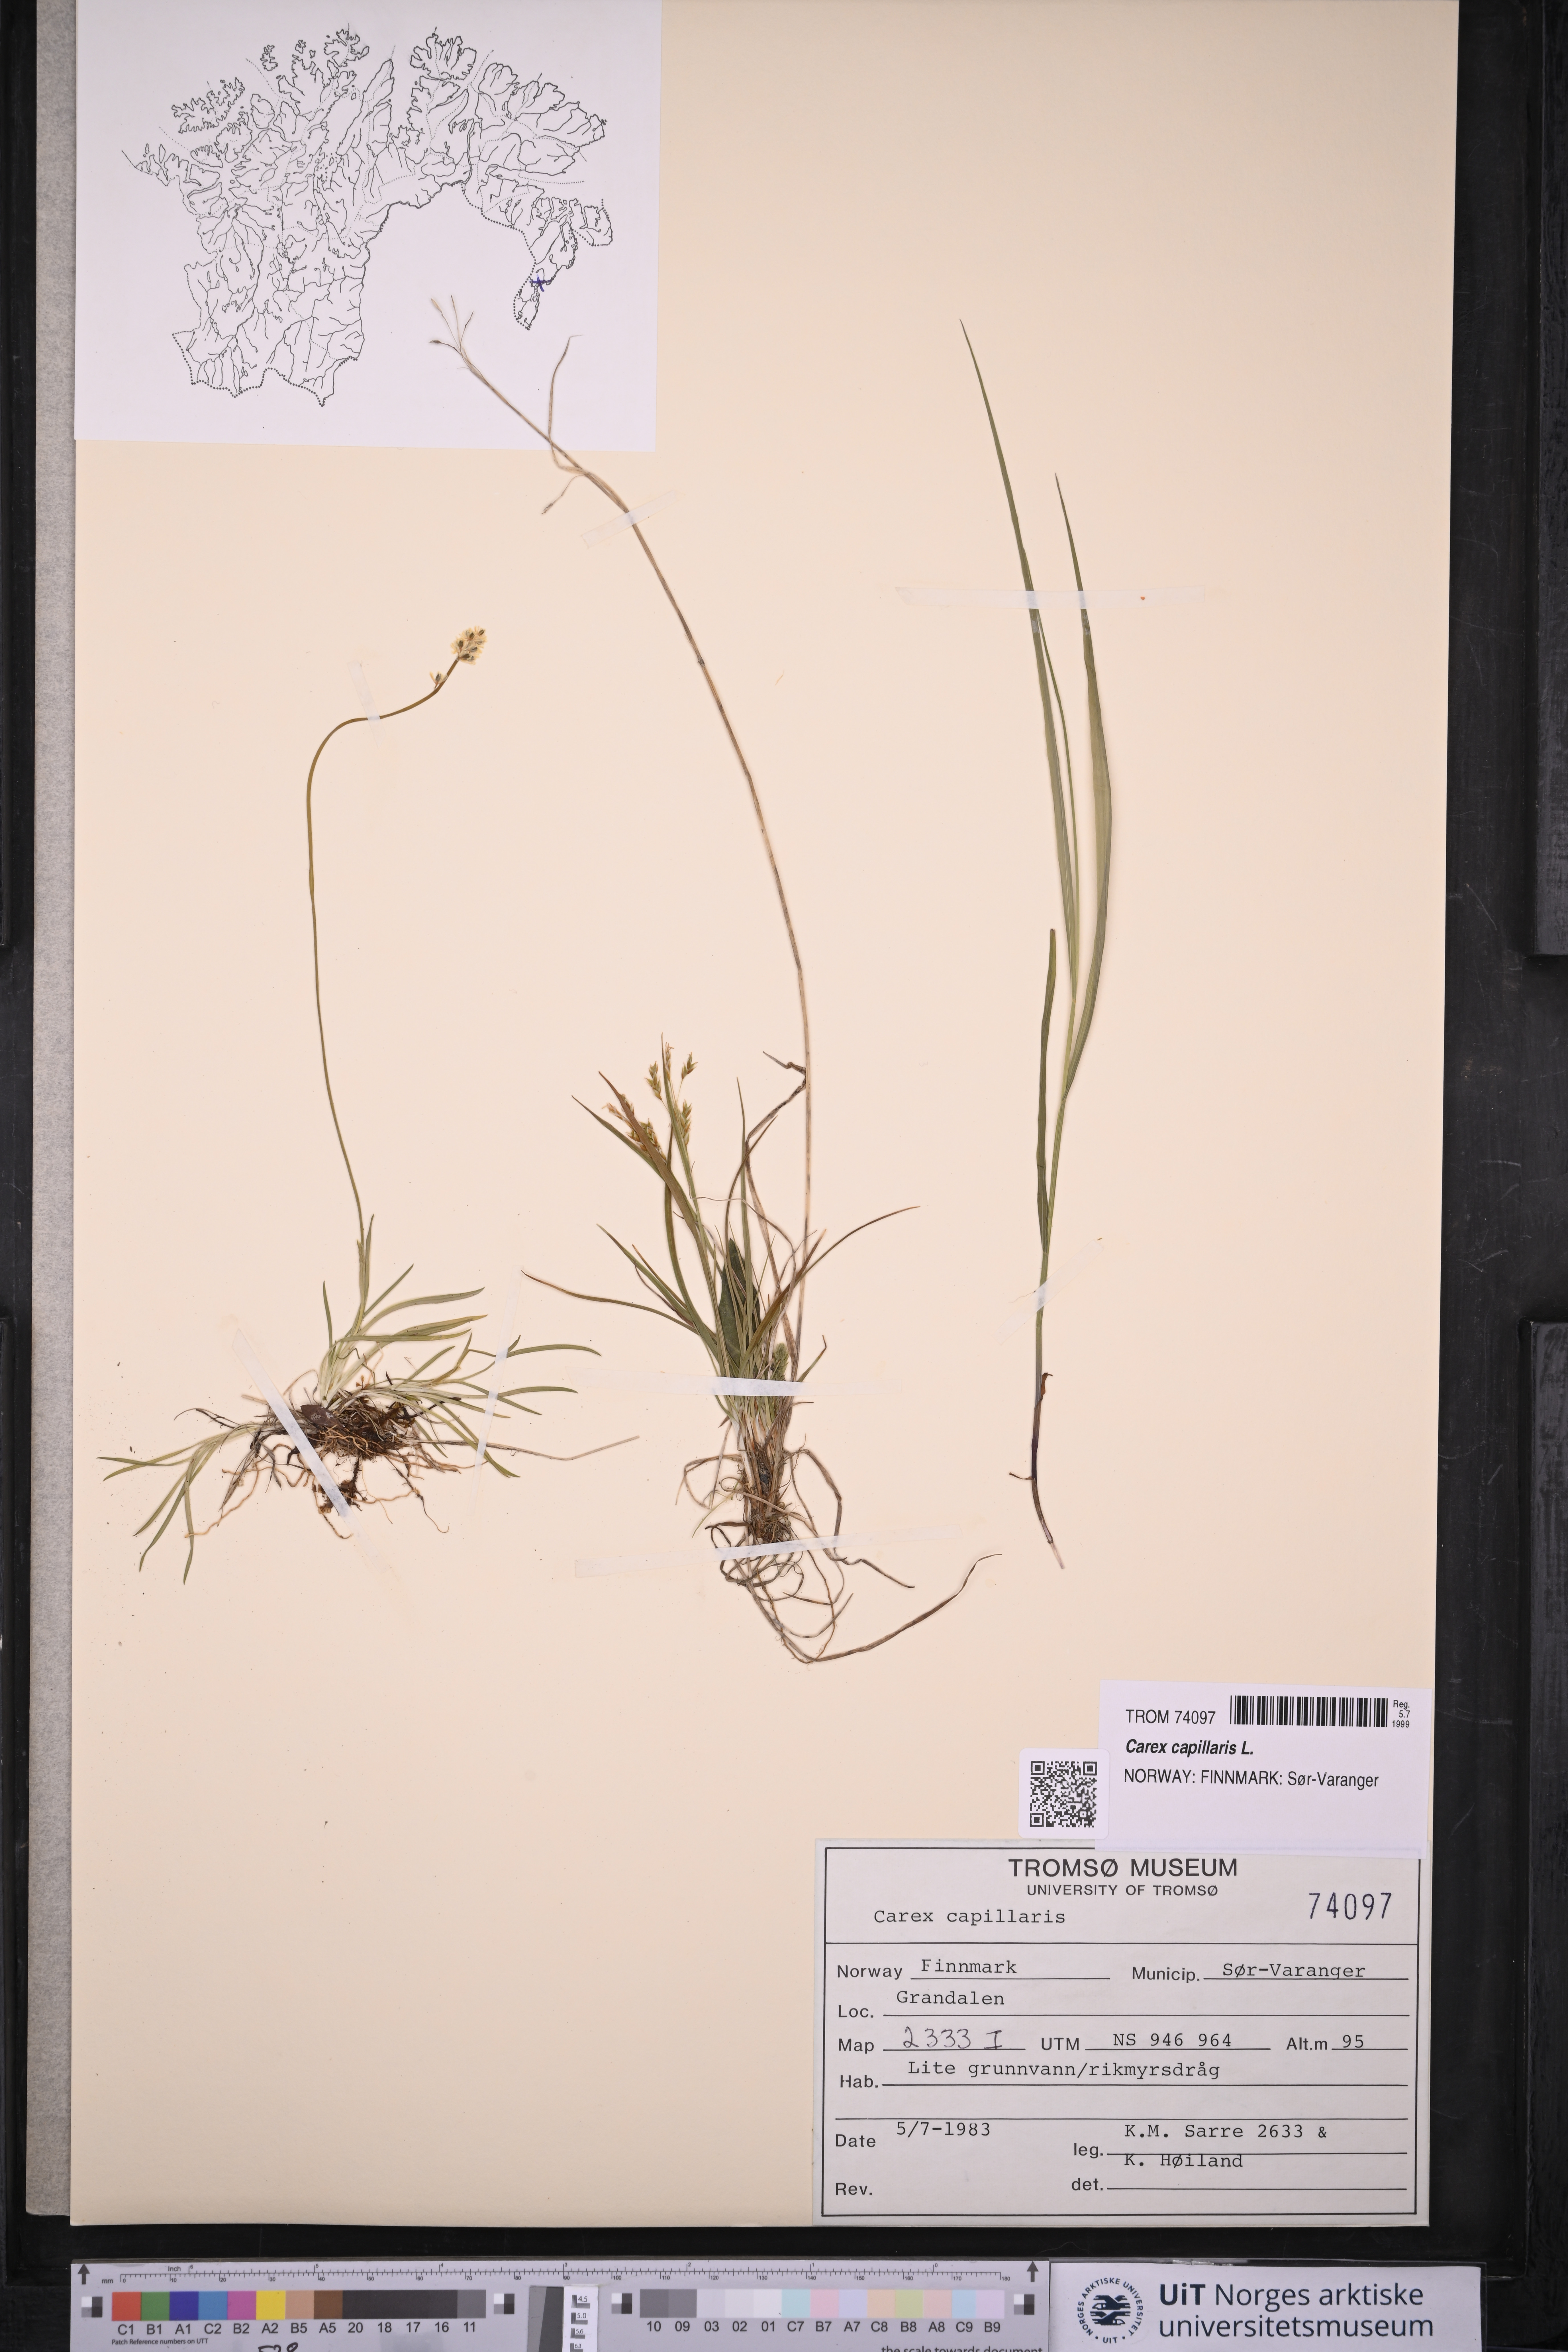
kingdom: Plantae
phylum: Tracheophyta
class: Liliopsida
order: Poales
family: Cyperaceae
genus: Carex
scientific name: Carex capillaris
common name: Hair sedge
